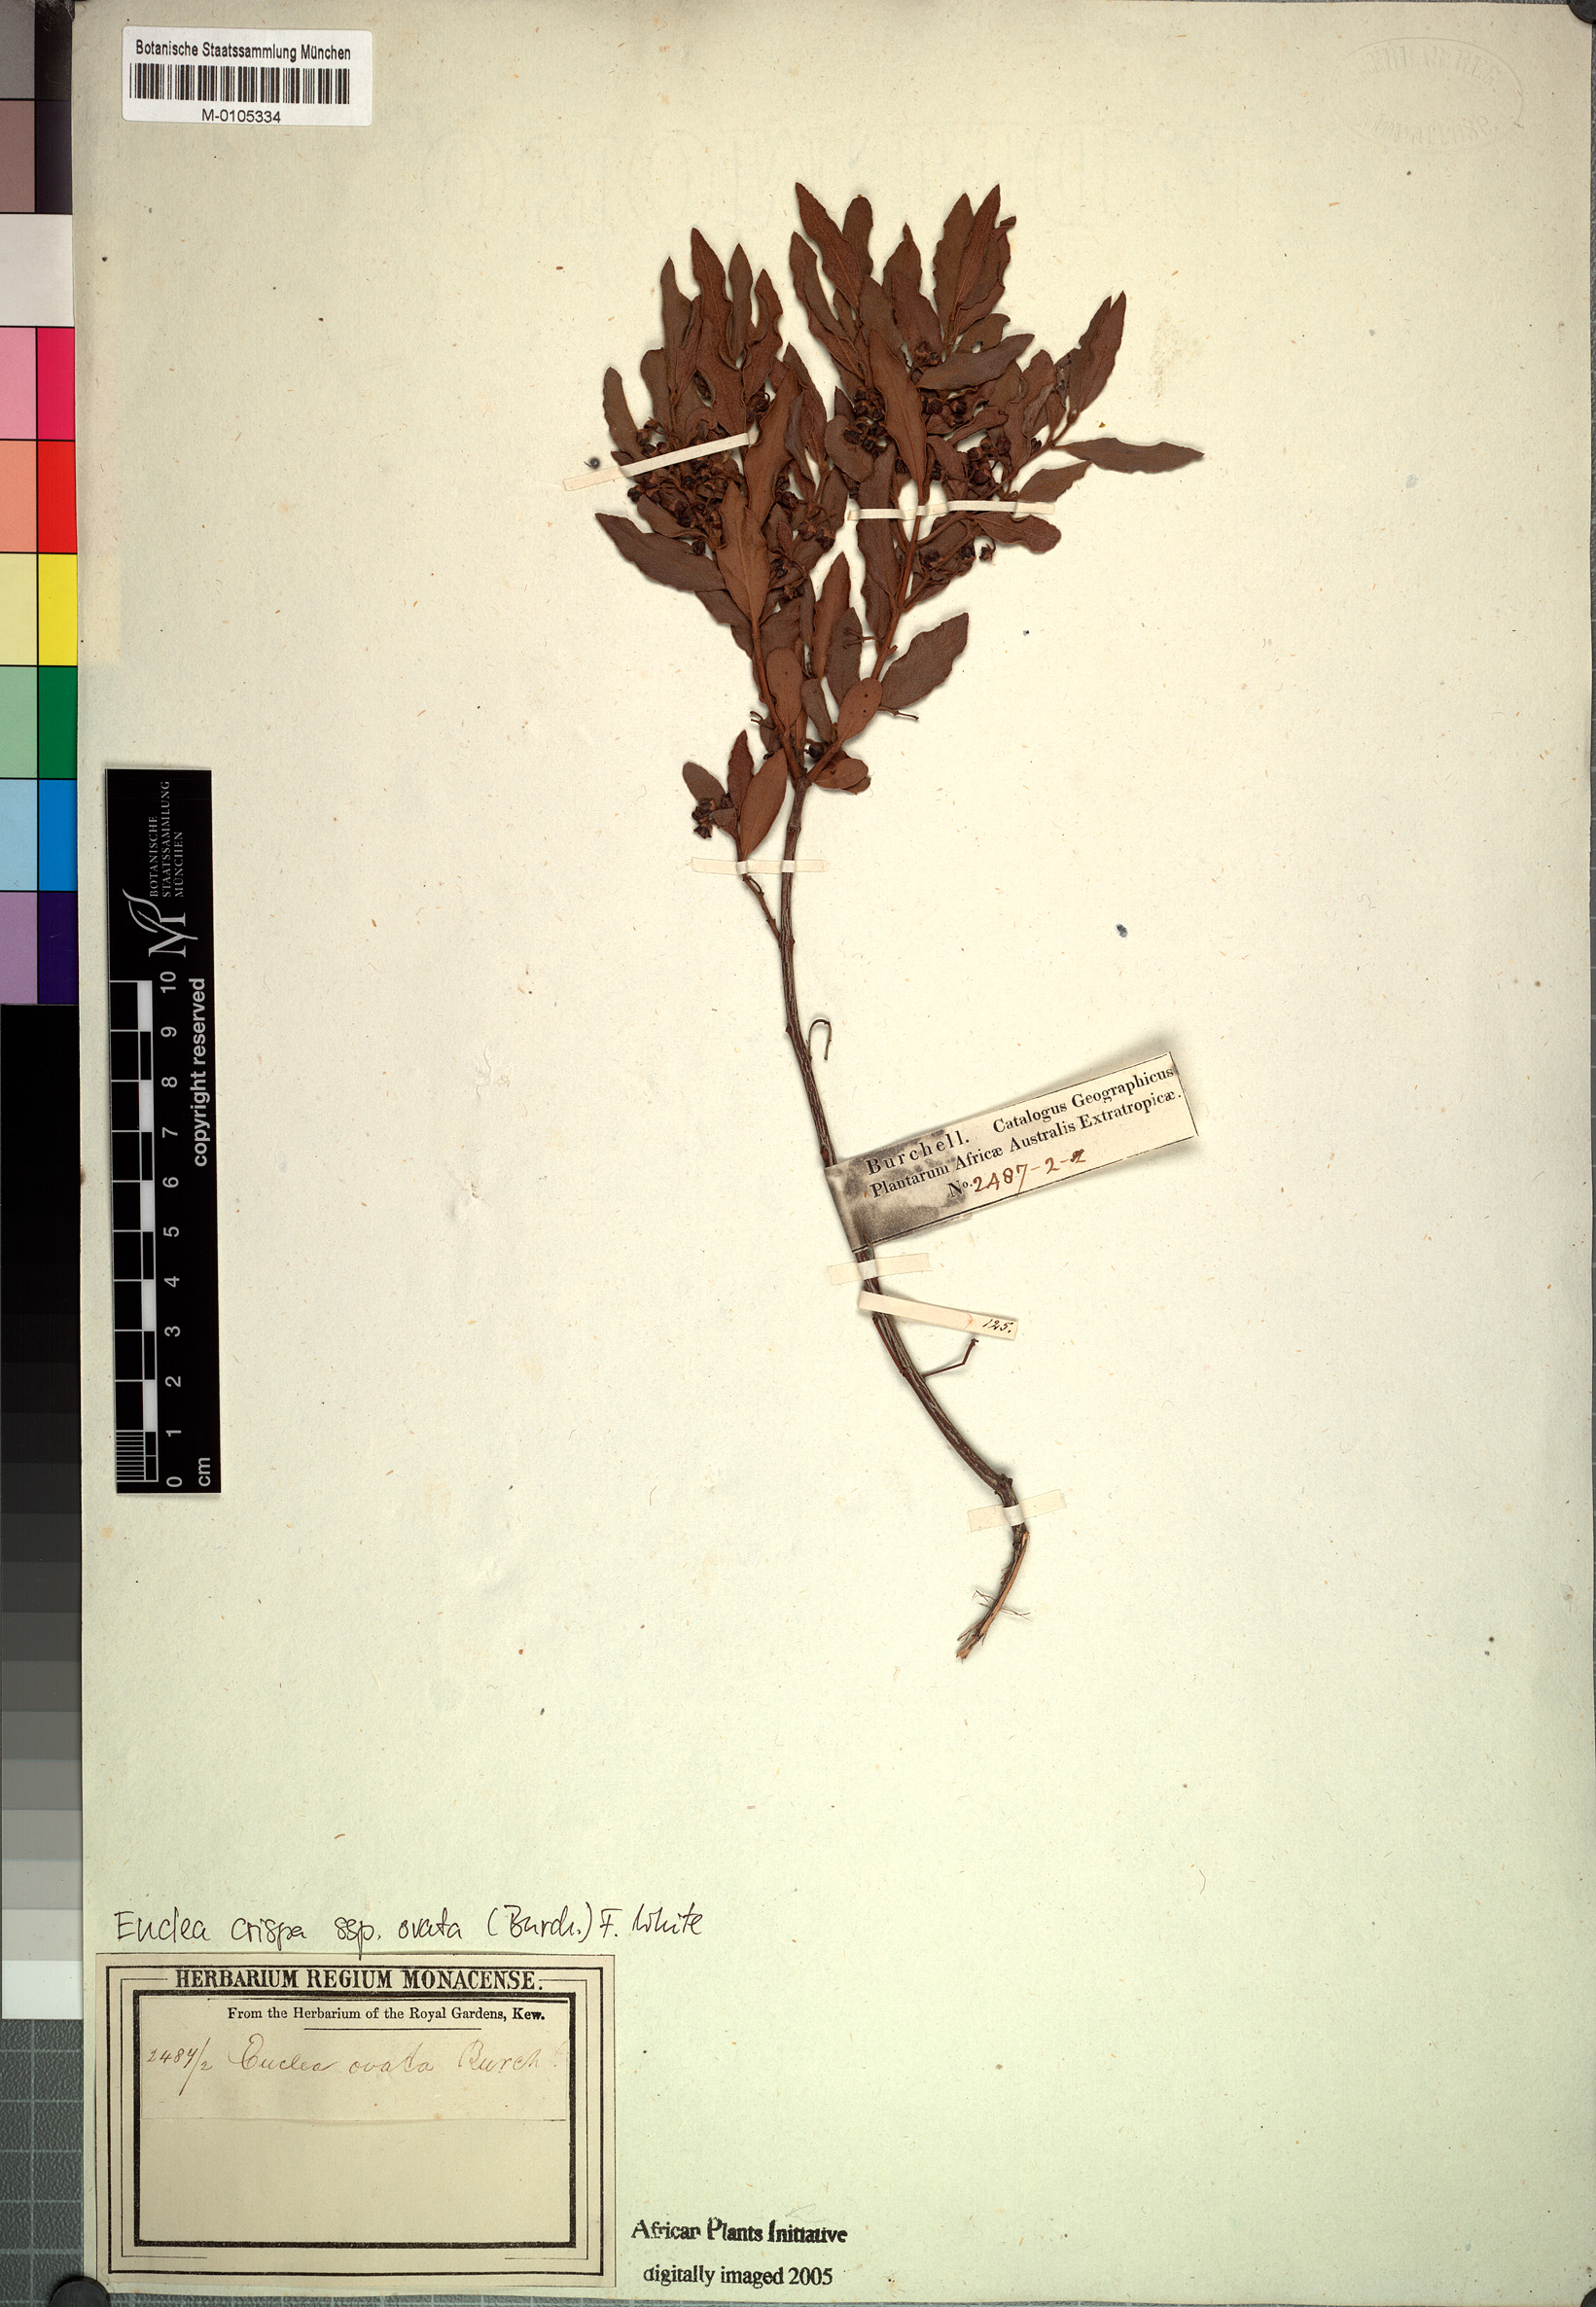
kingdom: Plantae
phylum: Tracheophyta
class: Magnoliopsida
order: Ericales
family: Ebenaceae
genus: Euclea
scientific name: Euclea crispa
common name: Blue guarri
